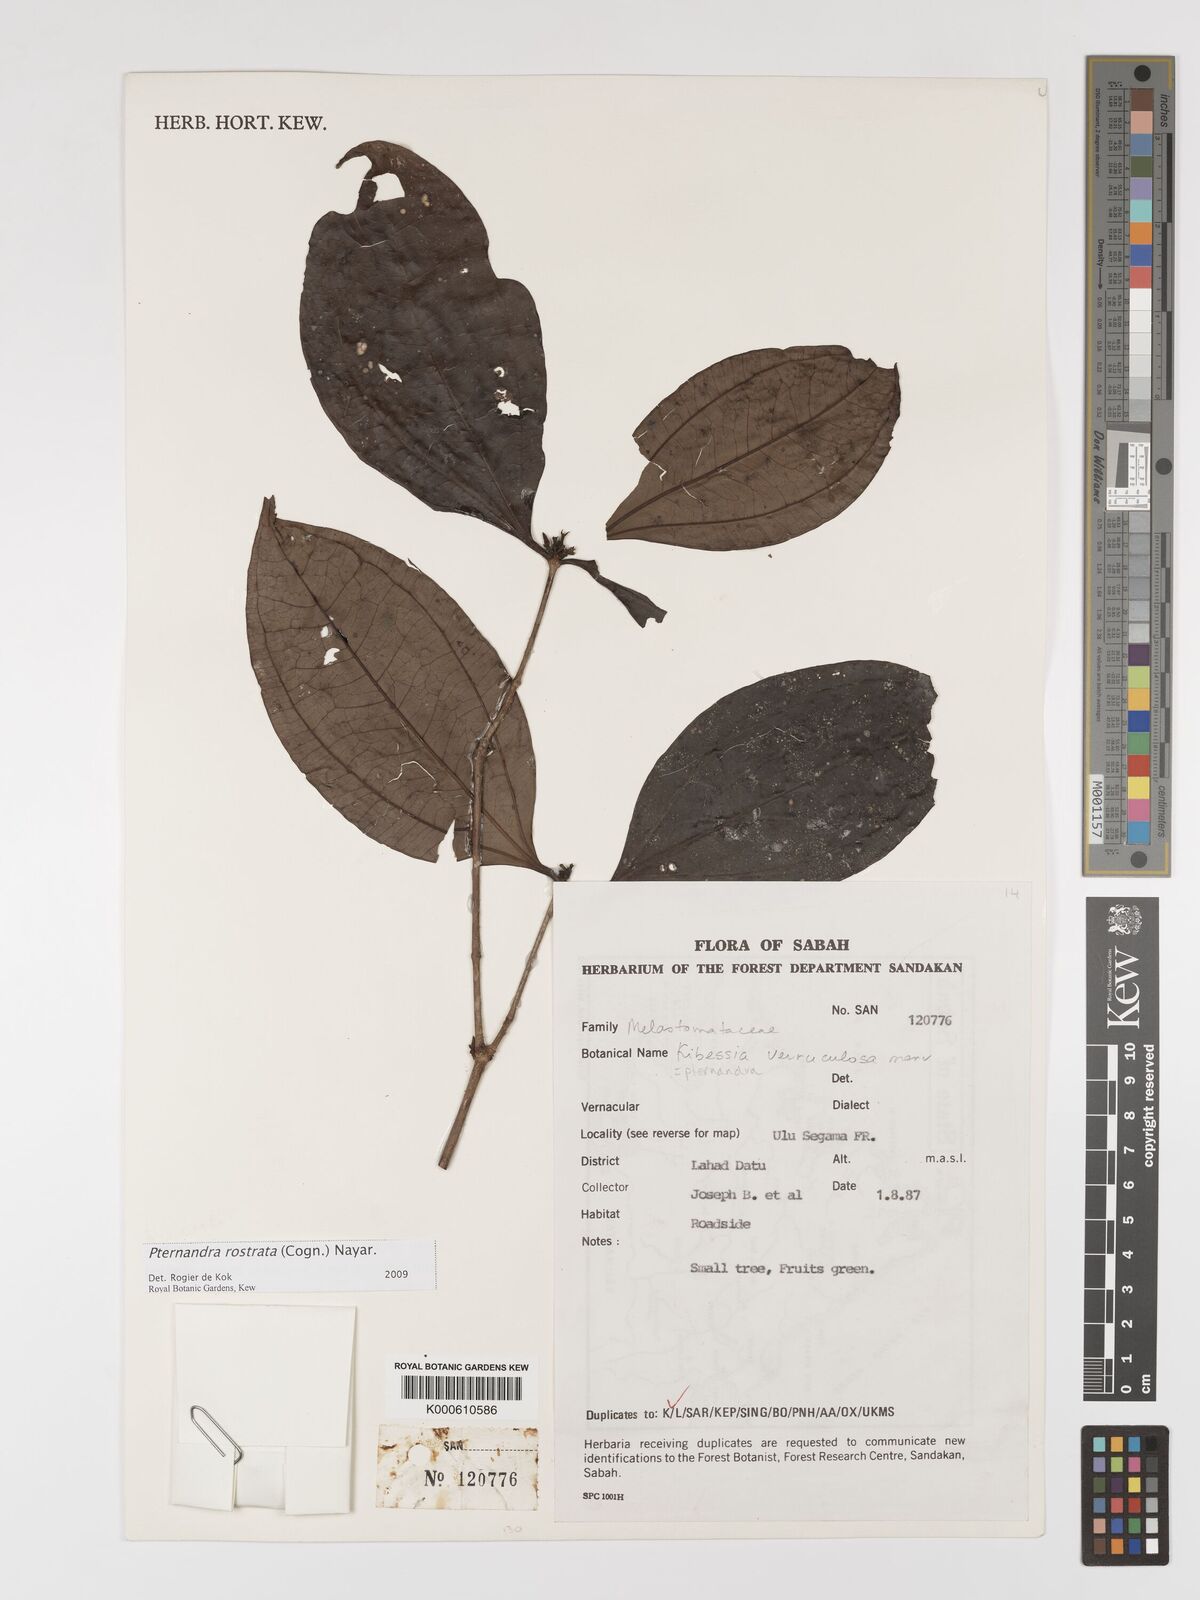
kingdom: Plantae
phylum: Tracheophyta
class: Magnoliopsida
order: Myrtales
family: Melastomataceae
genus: Pternandra
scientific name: Pternandra rostrata
